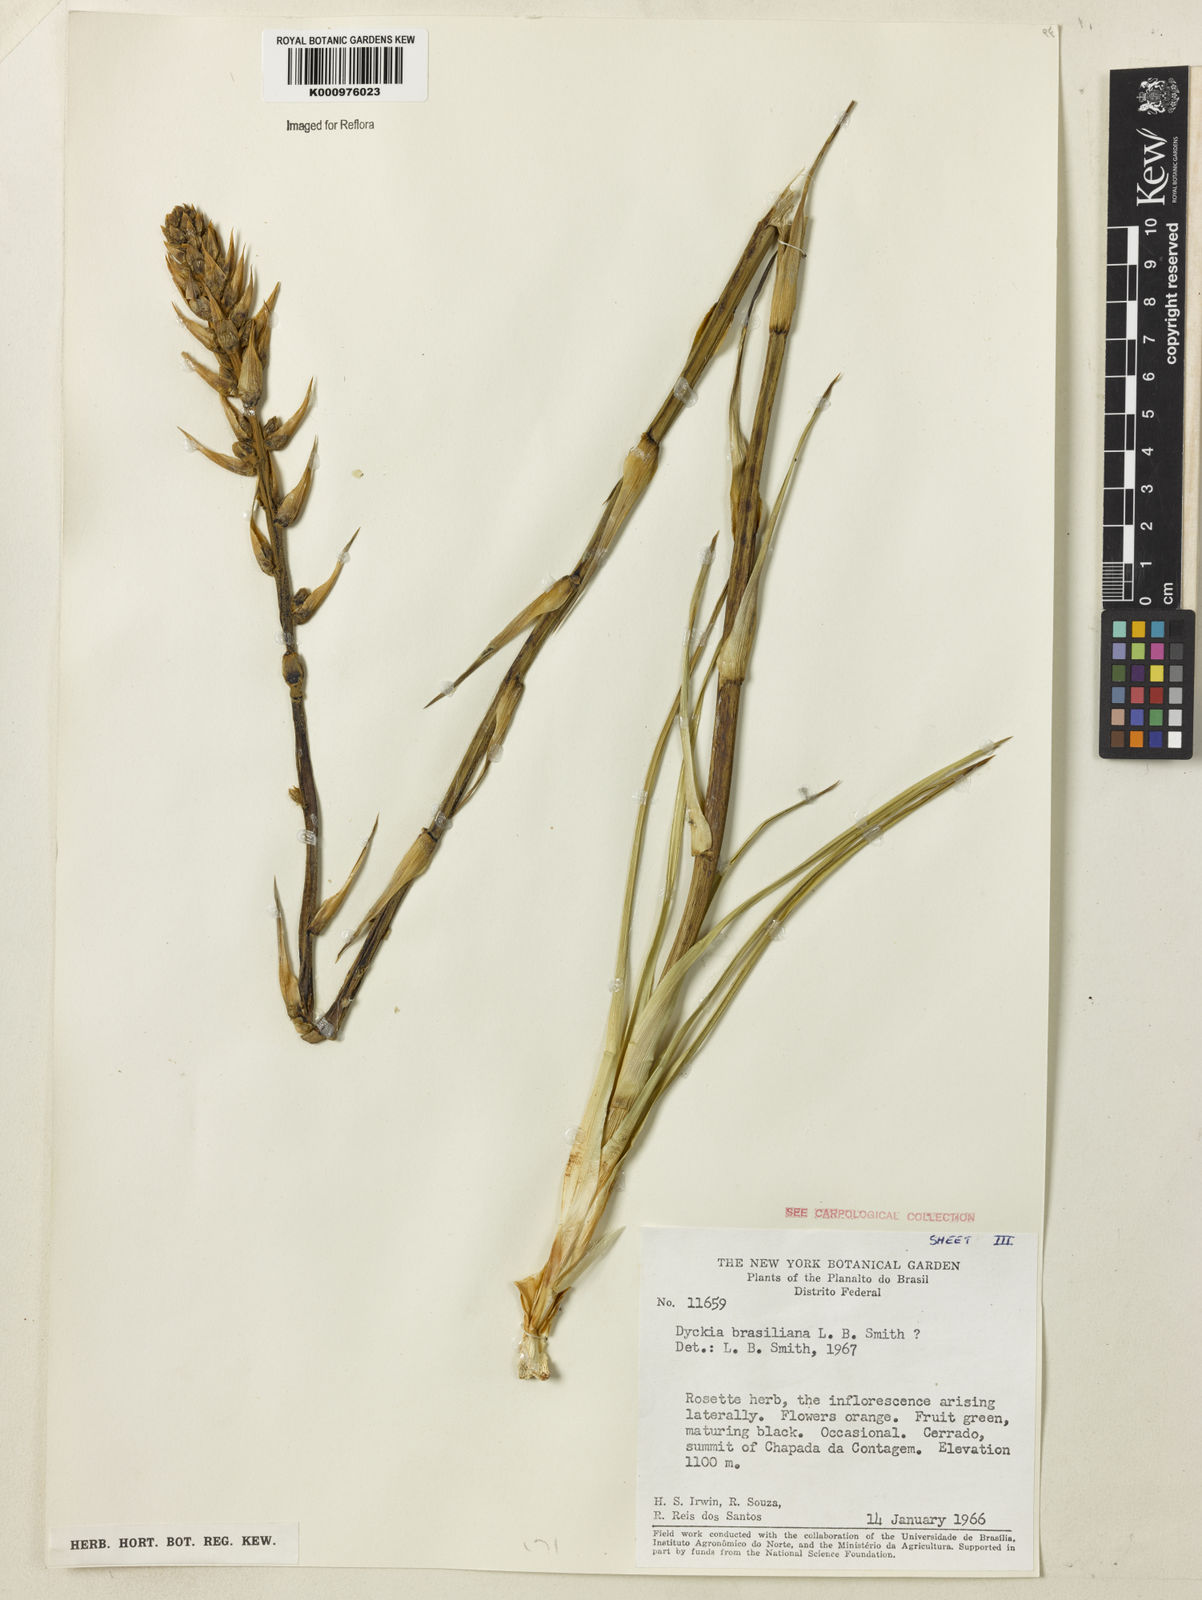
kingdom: Plantae
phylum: Tracheophyta
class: Liliopsida
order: Poales
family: Bromeliaceae
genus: Dyckia
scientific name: Dyckia brasiliana
